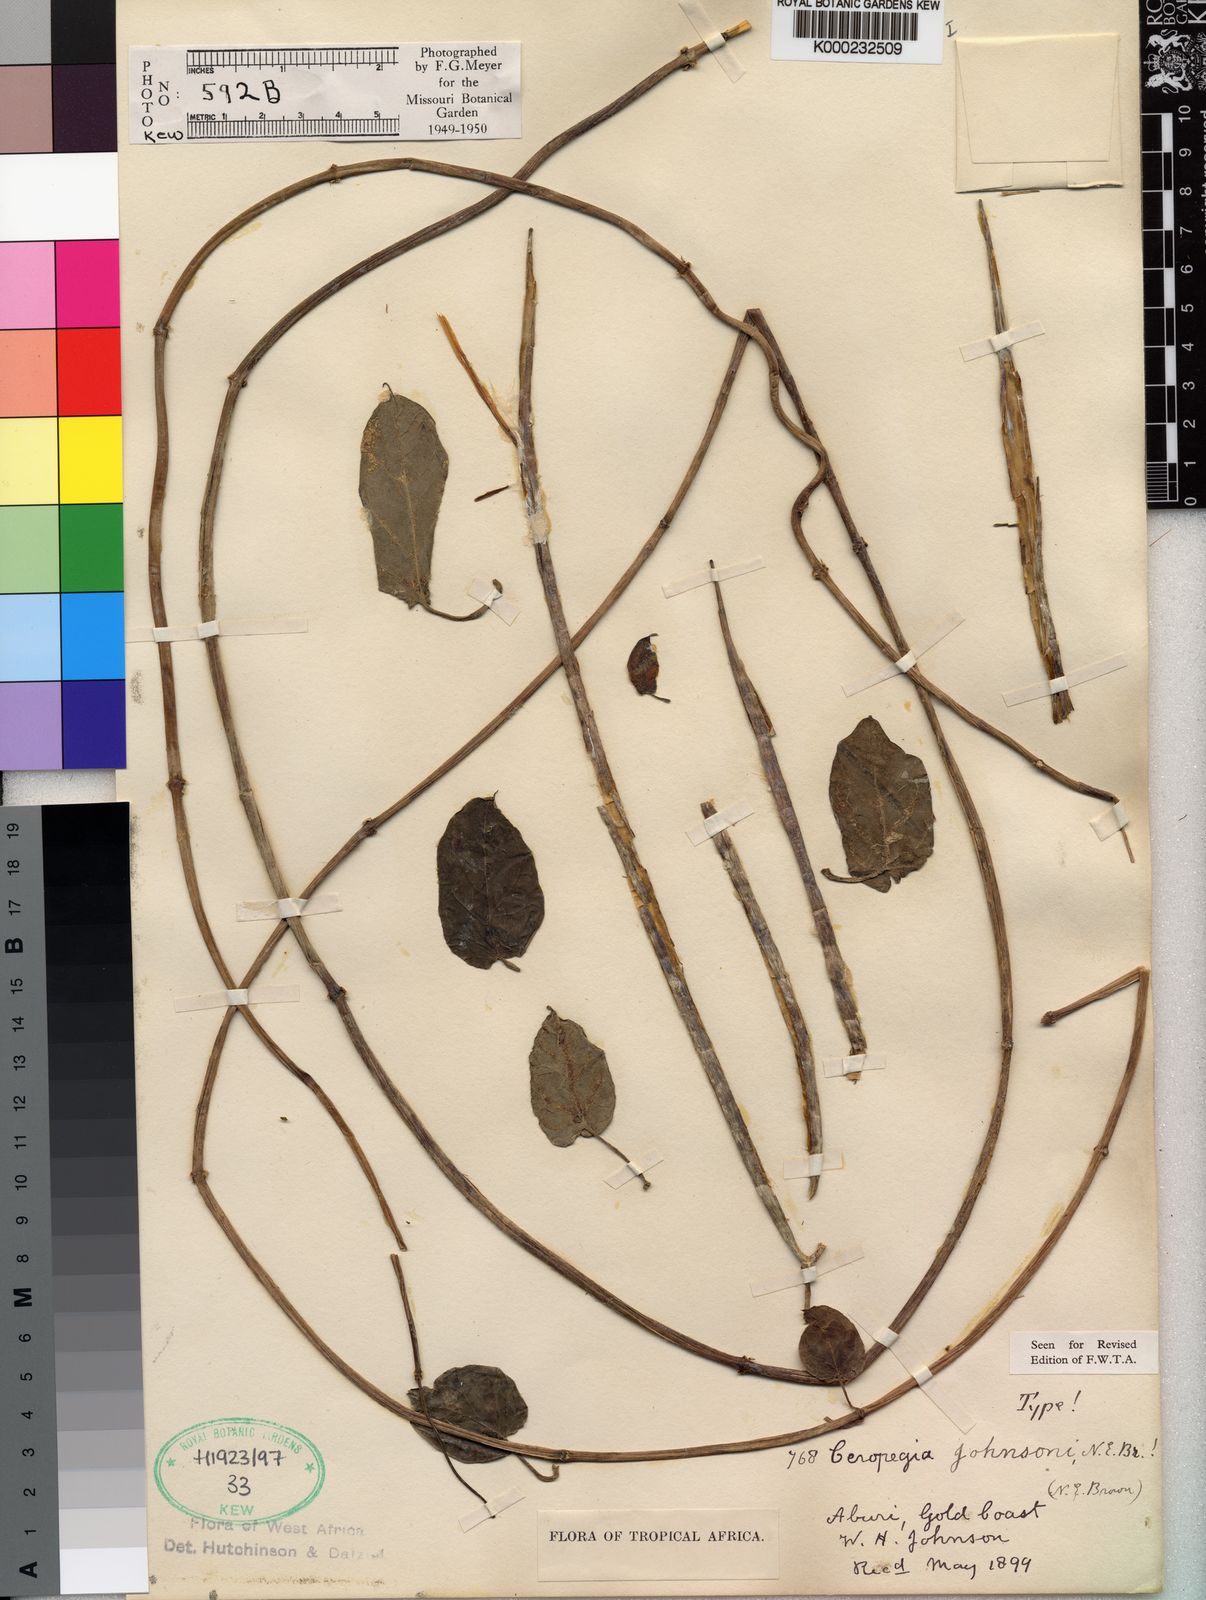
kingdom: Plantae
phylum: Tracheophyta
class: Magnoliopsida
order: Gentianales
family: Apocynaceae
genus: Ceropegia
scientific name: Ceropegia johnsonii
